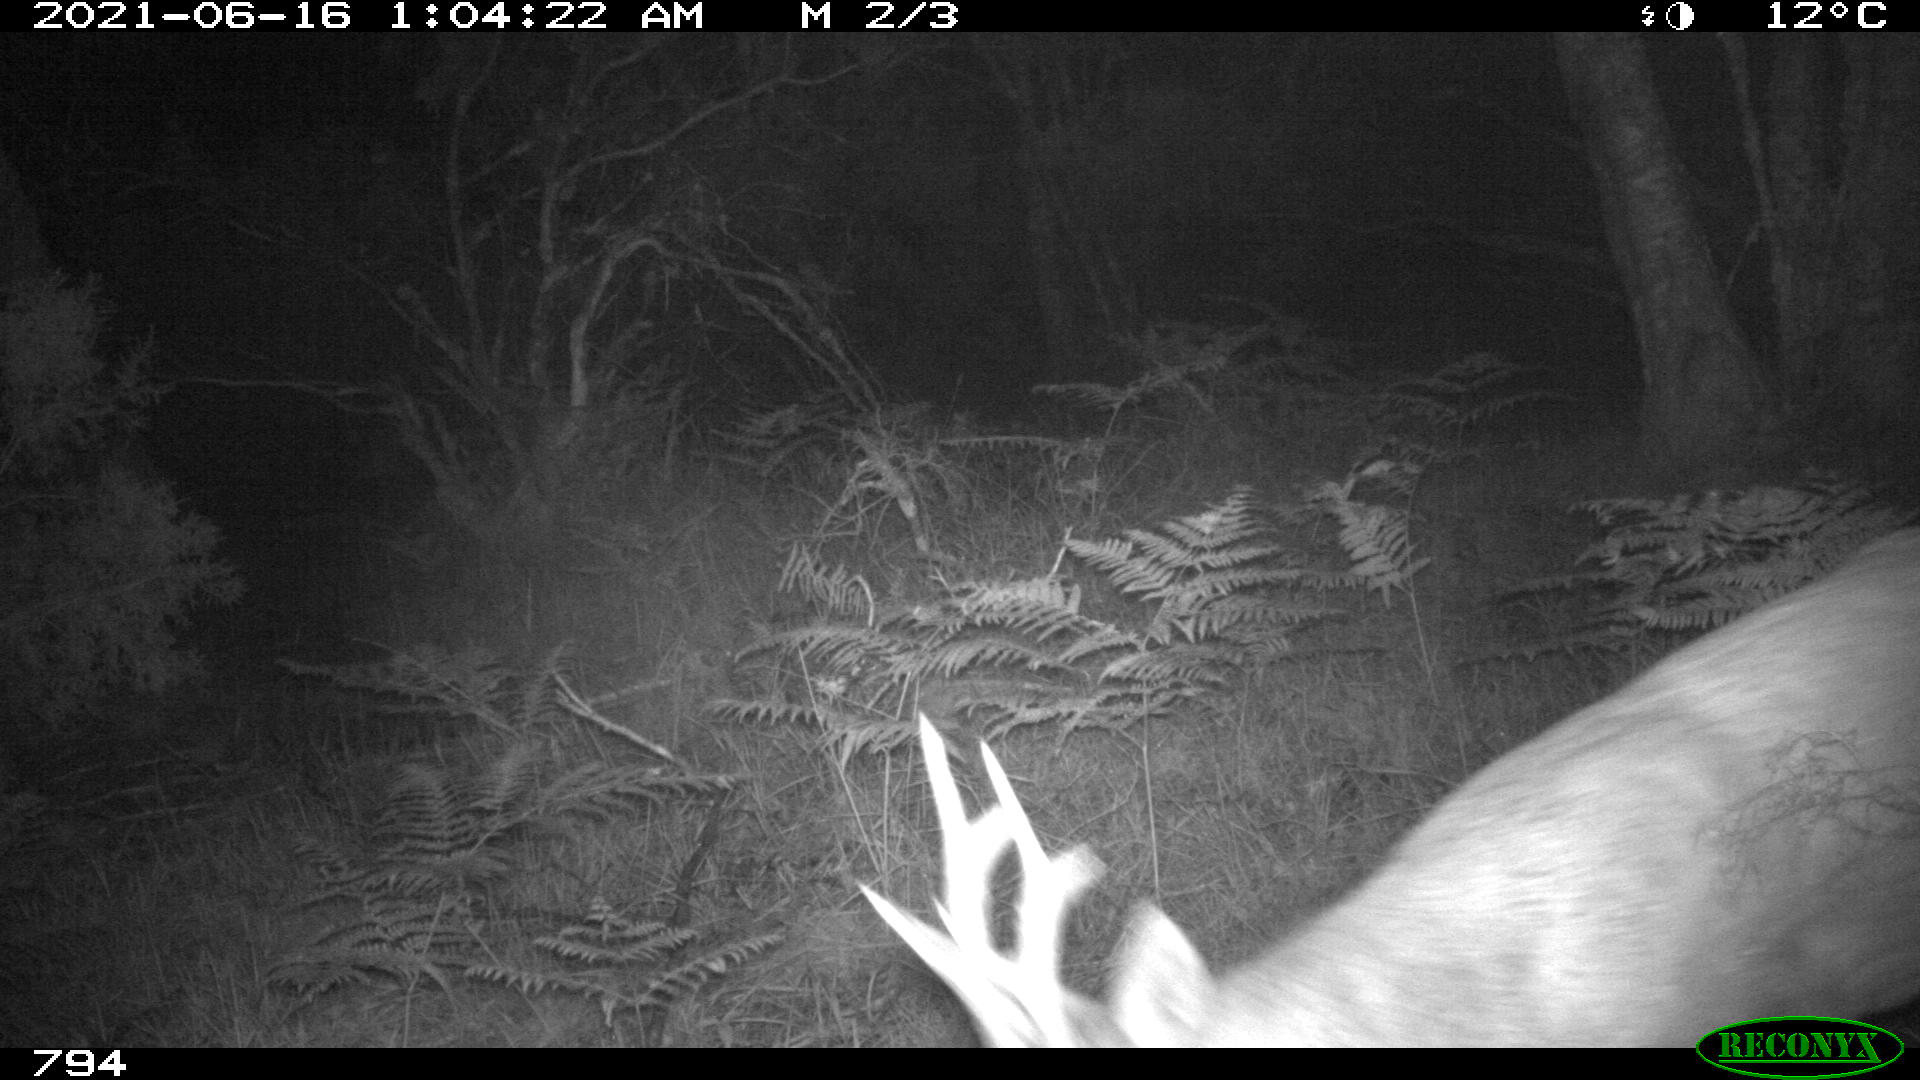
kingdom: Animalia
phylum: Chordata
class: Mammalia
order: Artiodactyla
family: Cervidae
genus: Capreolus
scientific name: Capreolus capreolus
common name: Western roe deer
